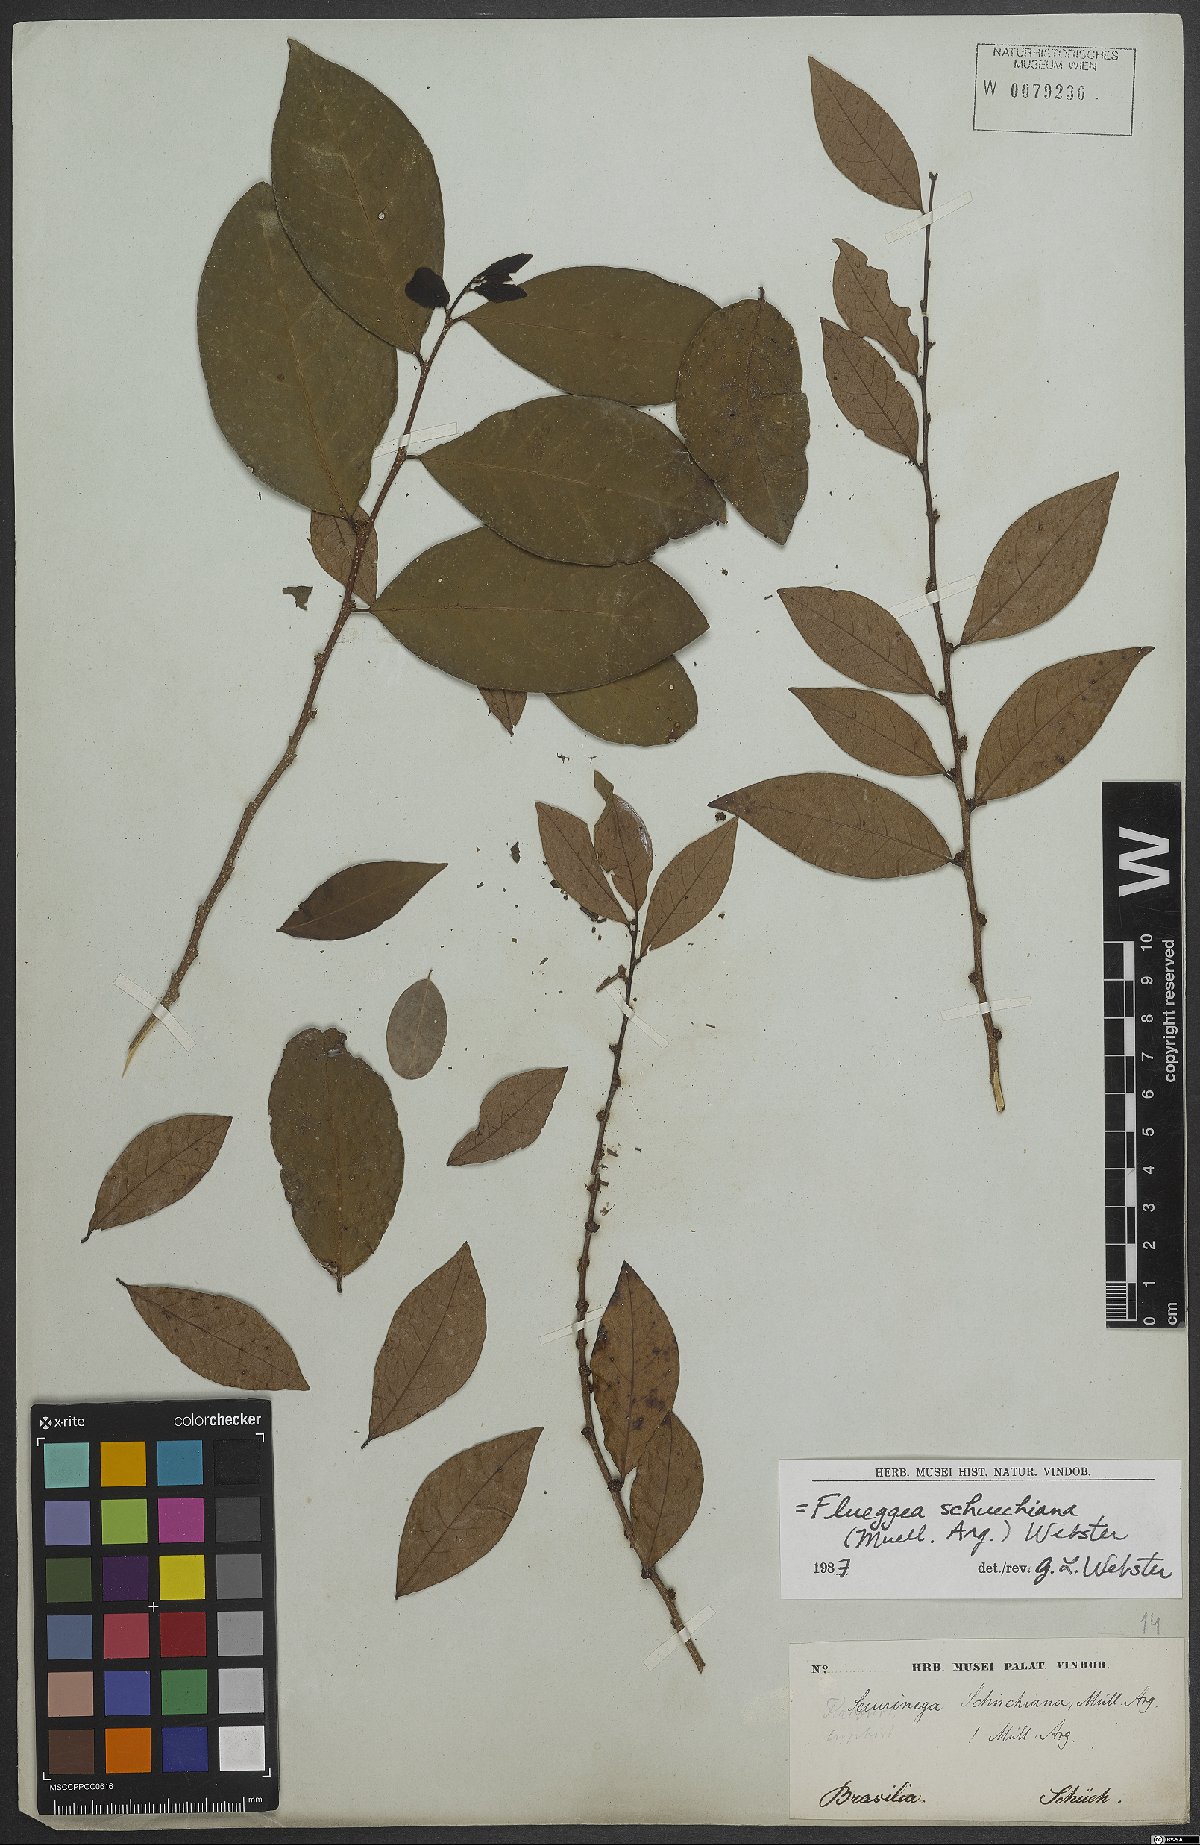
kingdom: Plantae
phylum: Tracheophyta
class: Magnoliopsida
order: Malpighiales
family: Phyllanthaceae
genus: Flueggea
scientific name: Flueggea schuechiana
